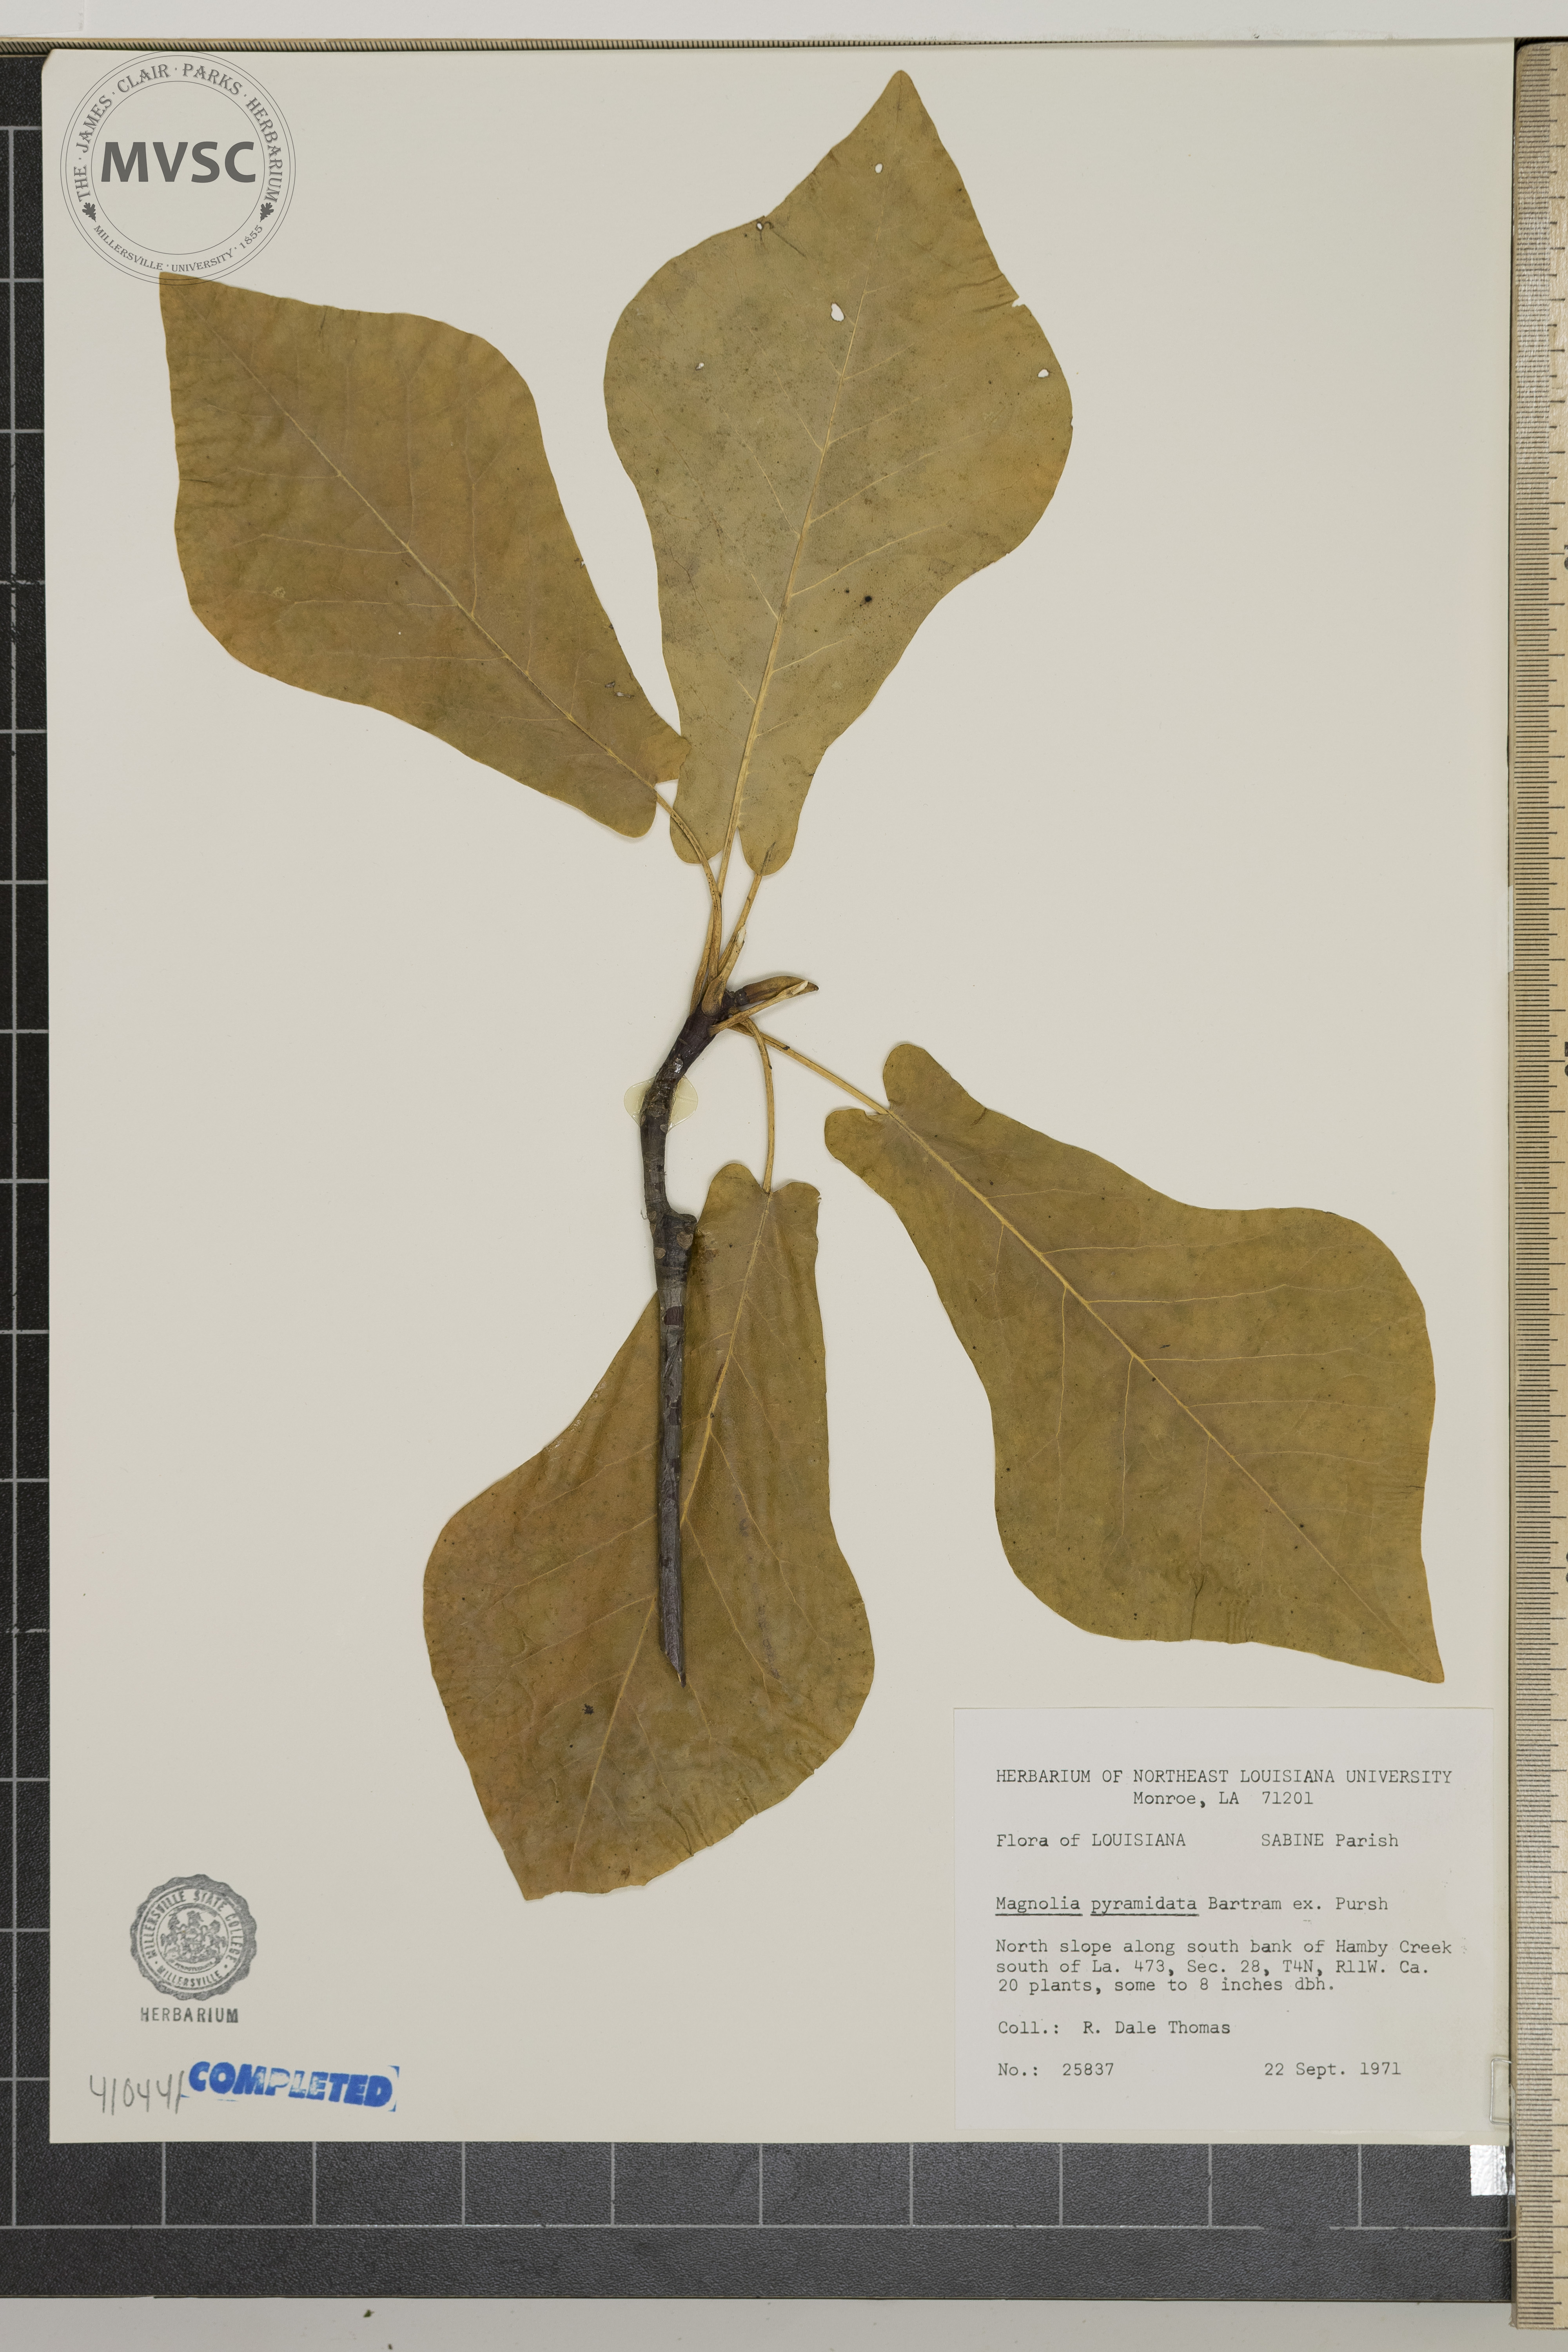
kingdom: Plantae
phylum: Tracheophyta
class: Magnoliopsida
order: Magnoliales
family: Magnoliaceae
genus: Magnolia
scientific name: Magnolia fraseri
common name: Fraser's magnolia
